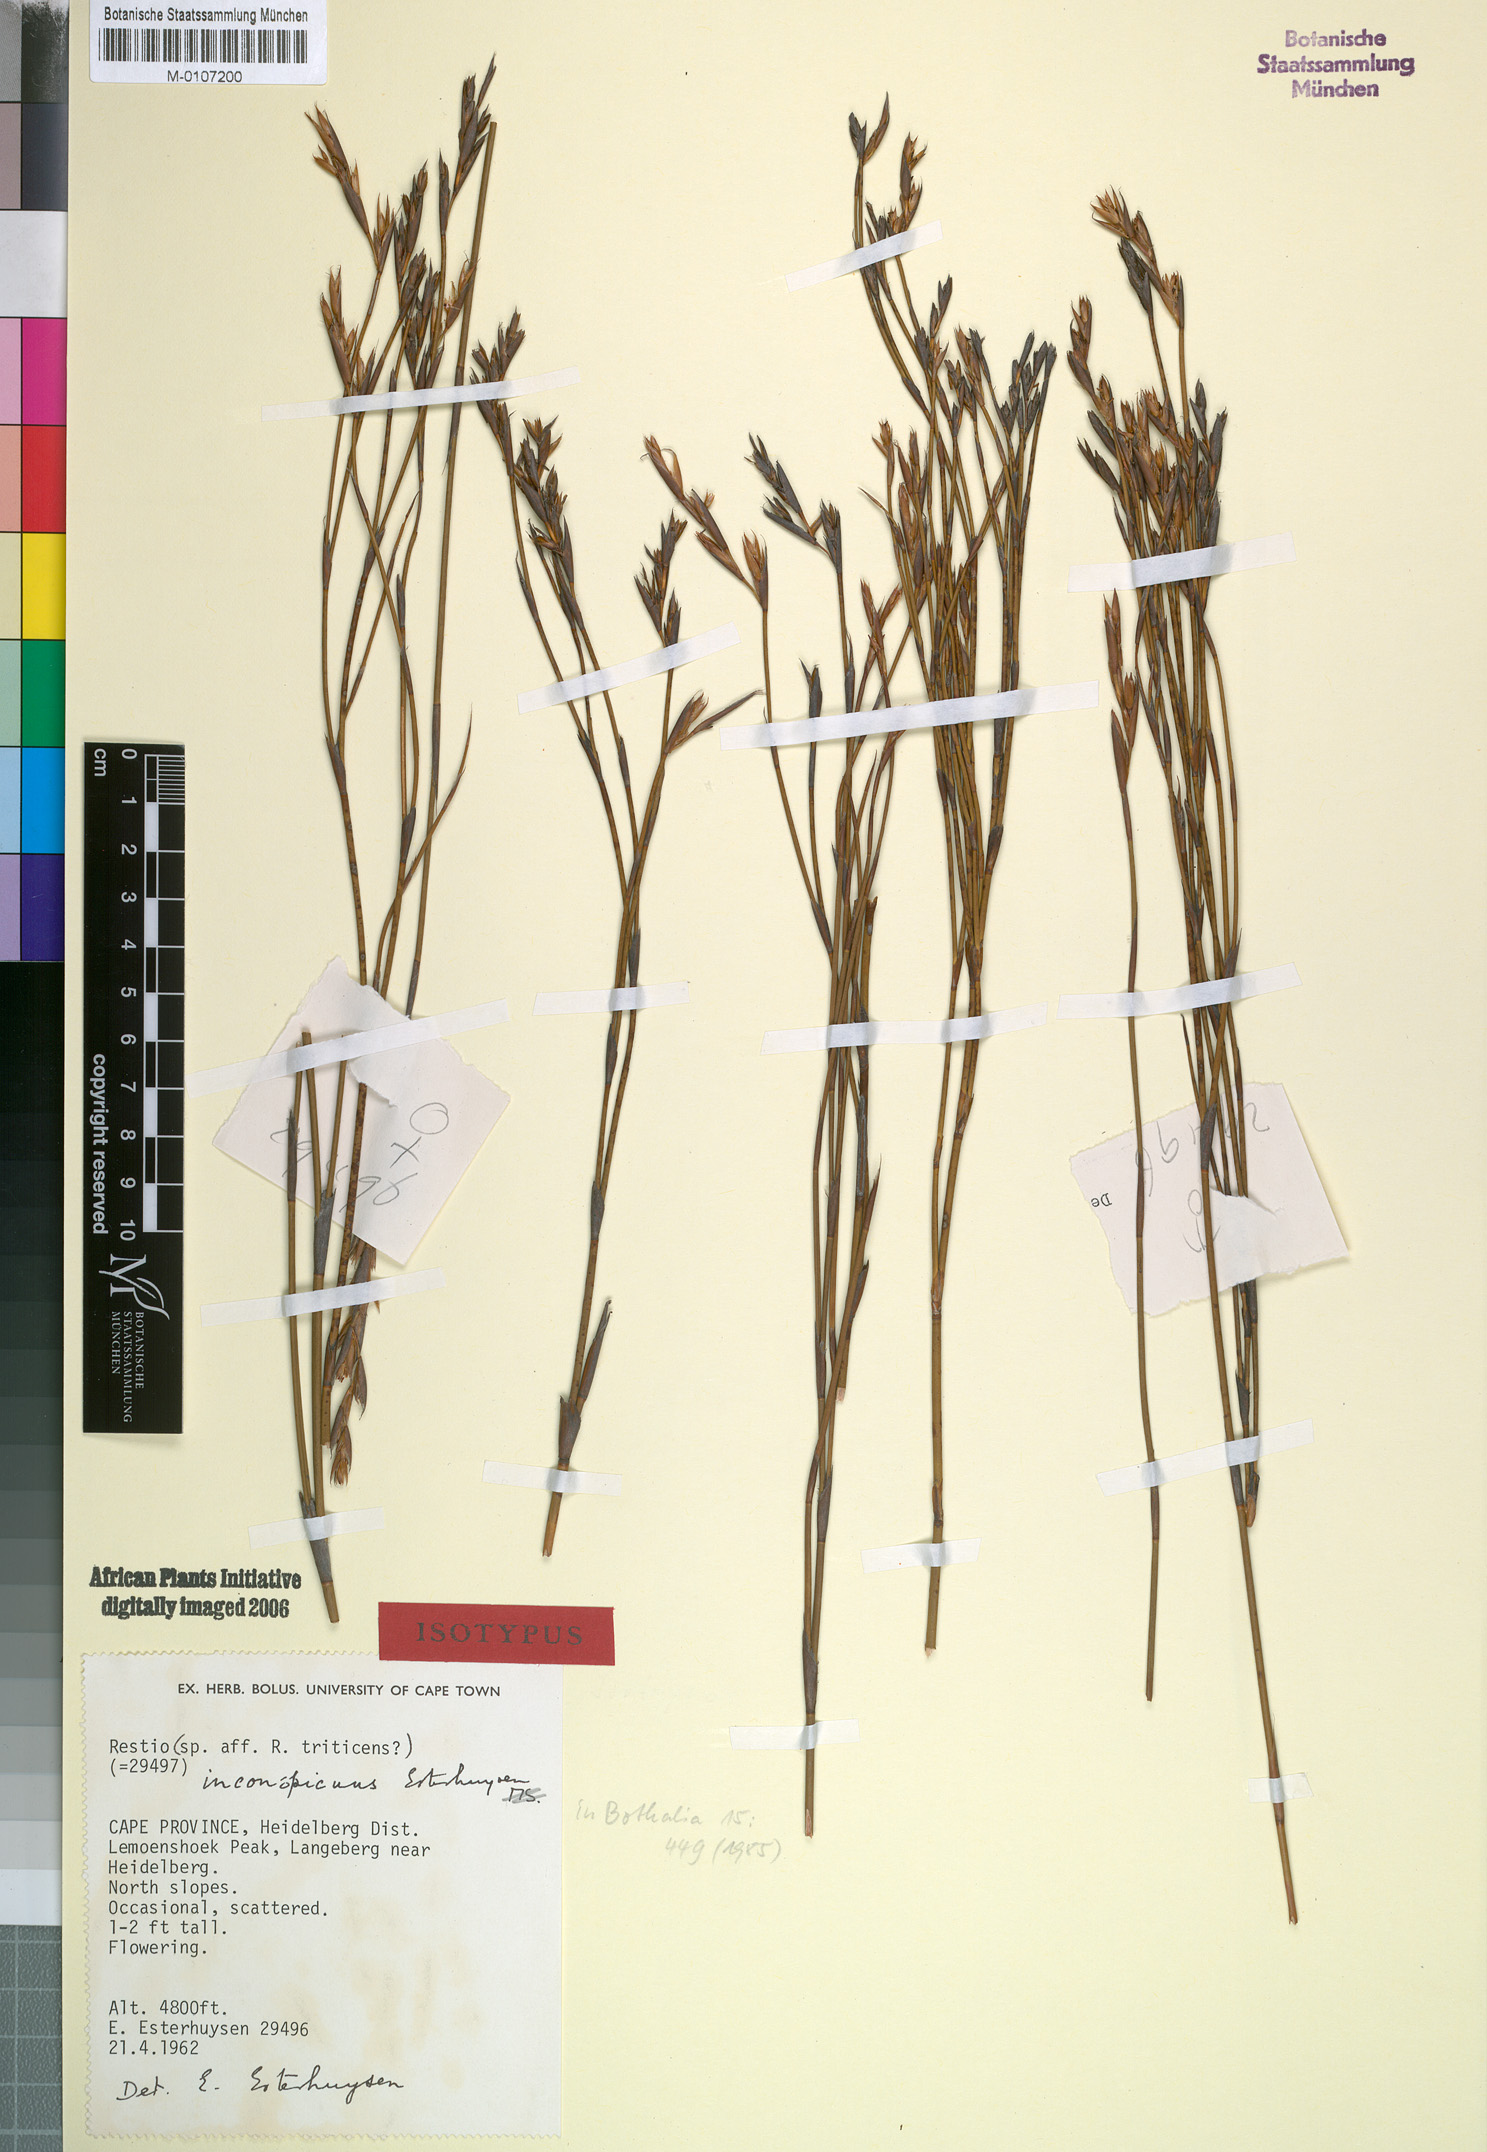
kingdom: Plantae
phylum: Tracheophyta
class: Liliopsida
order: Poales
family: Restionaceae
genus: Restio
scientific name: Restio inconspicuus
